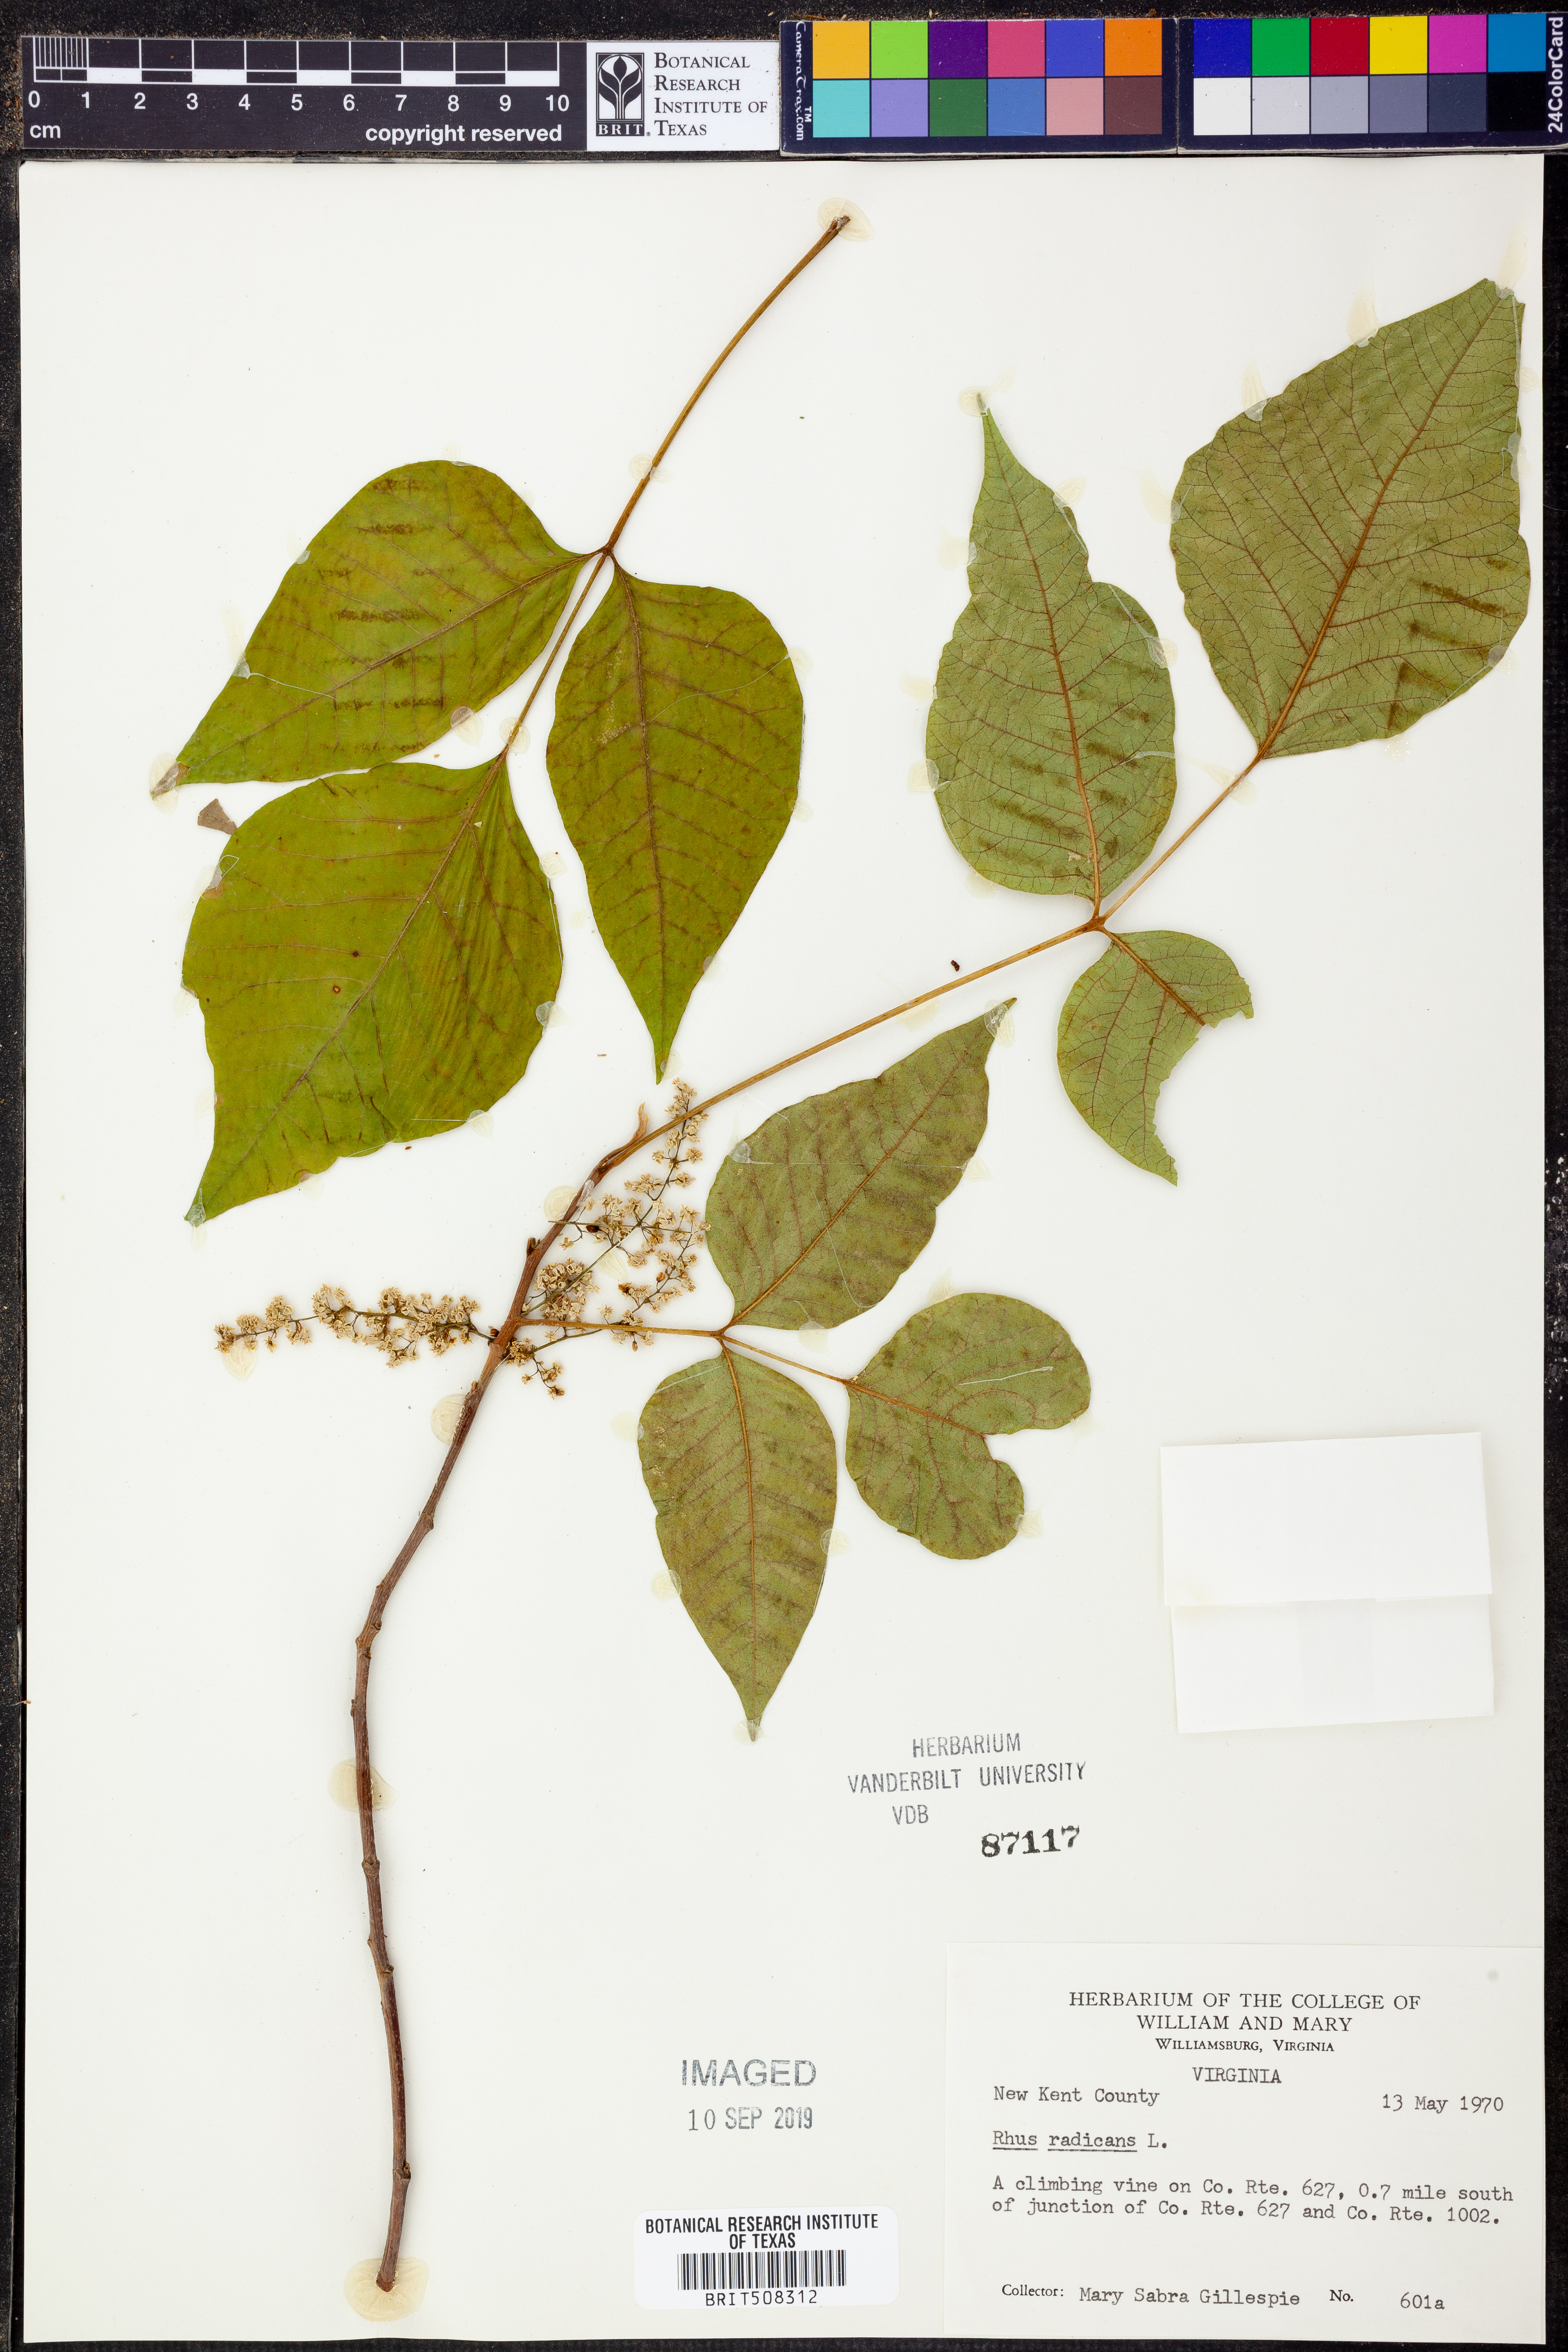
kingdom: Plantae
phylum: Tracheophyta
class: Magnoliopsida
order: Sapindales
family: Anacardiaceae
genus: Toxicodendron
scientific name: Toxicodendron radicans
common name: Poison ivy
